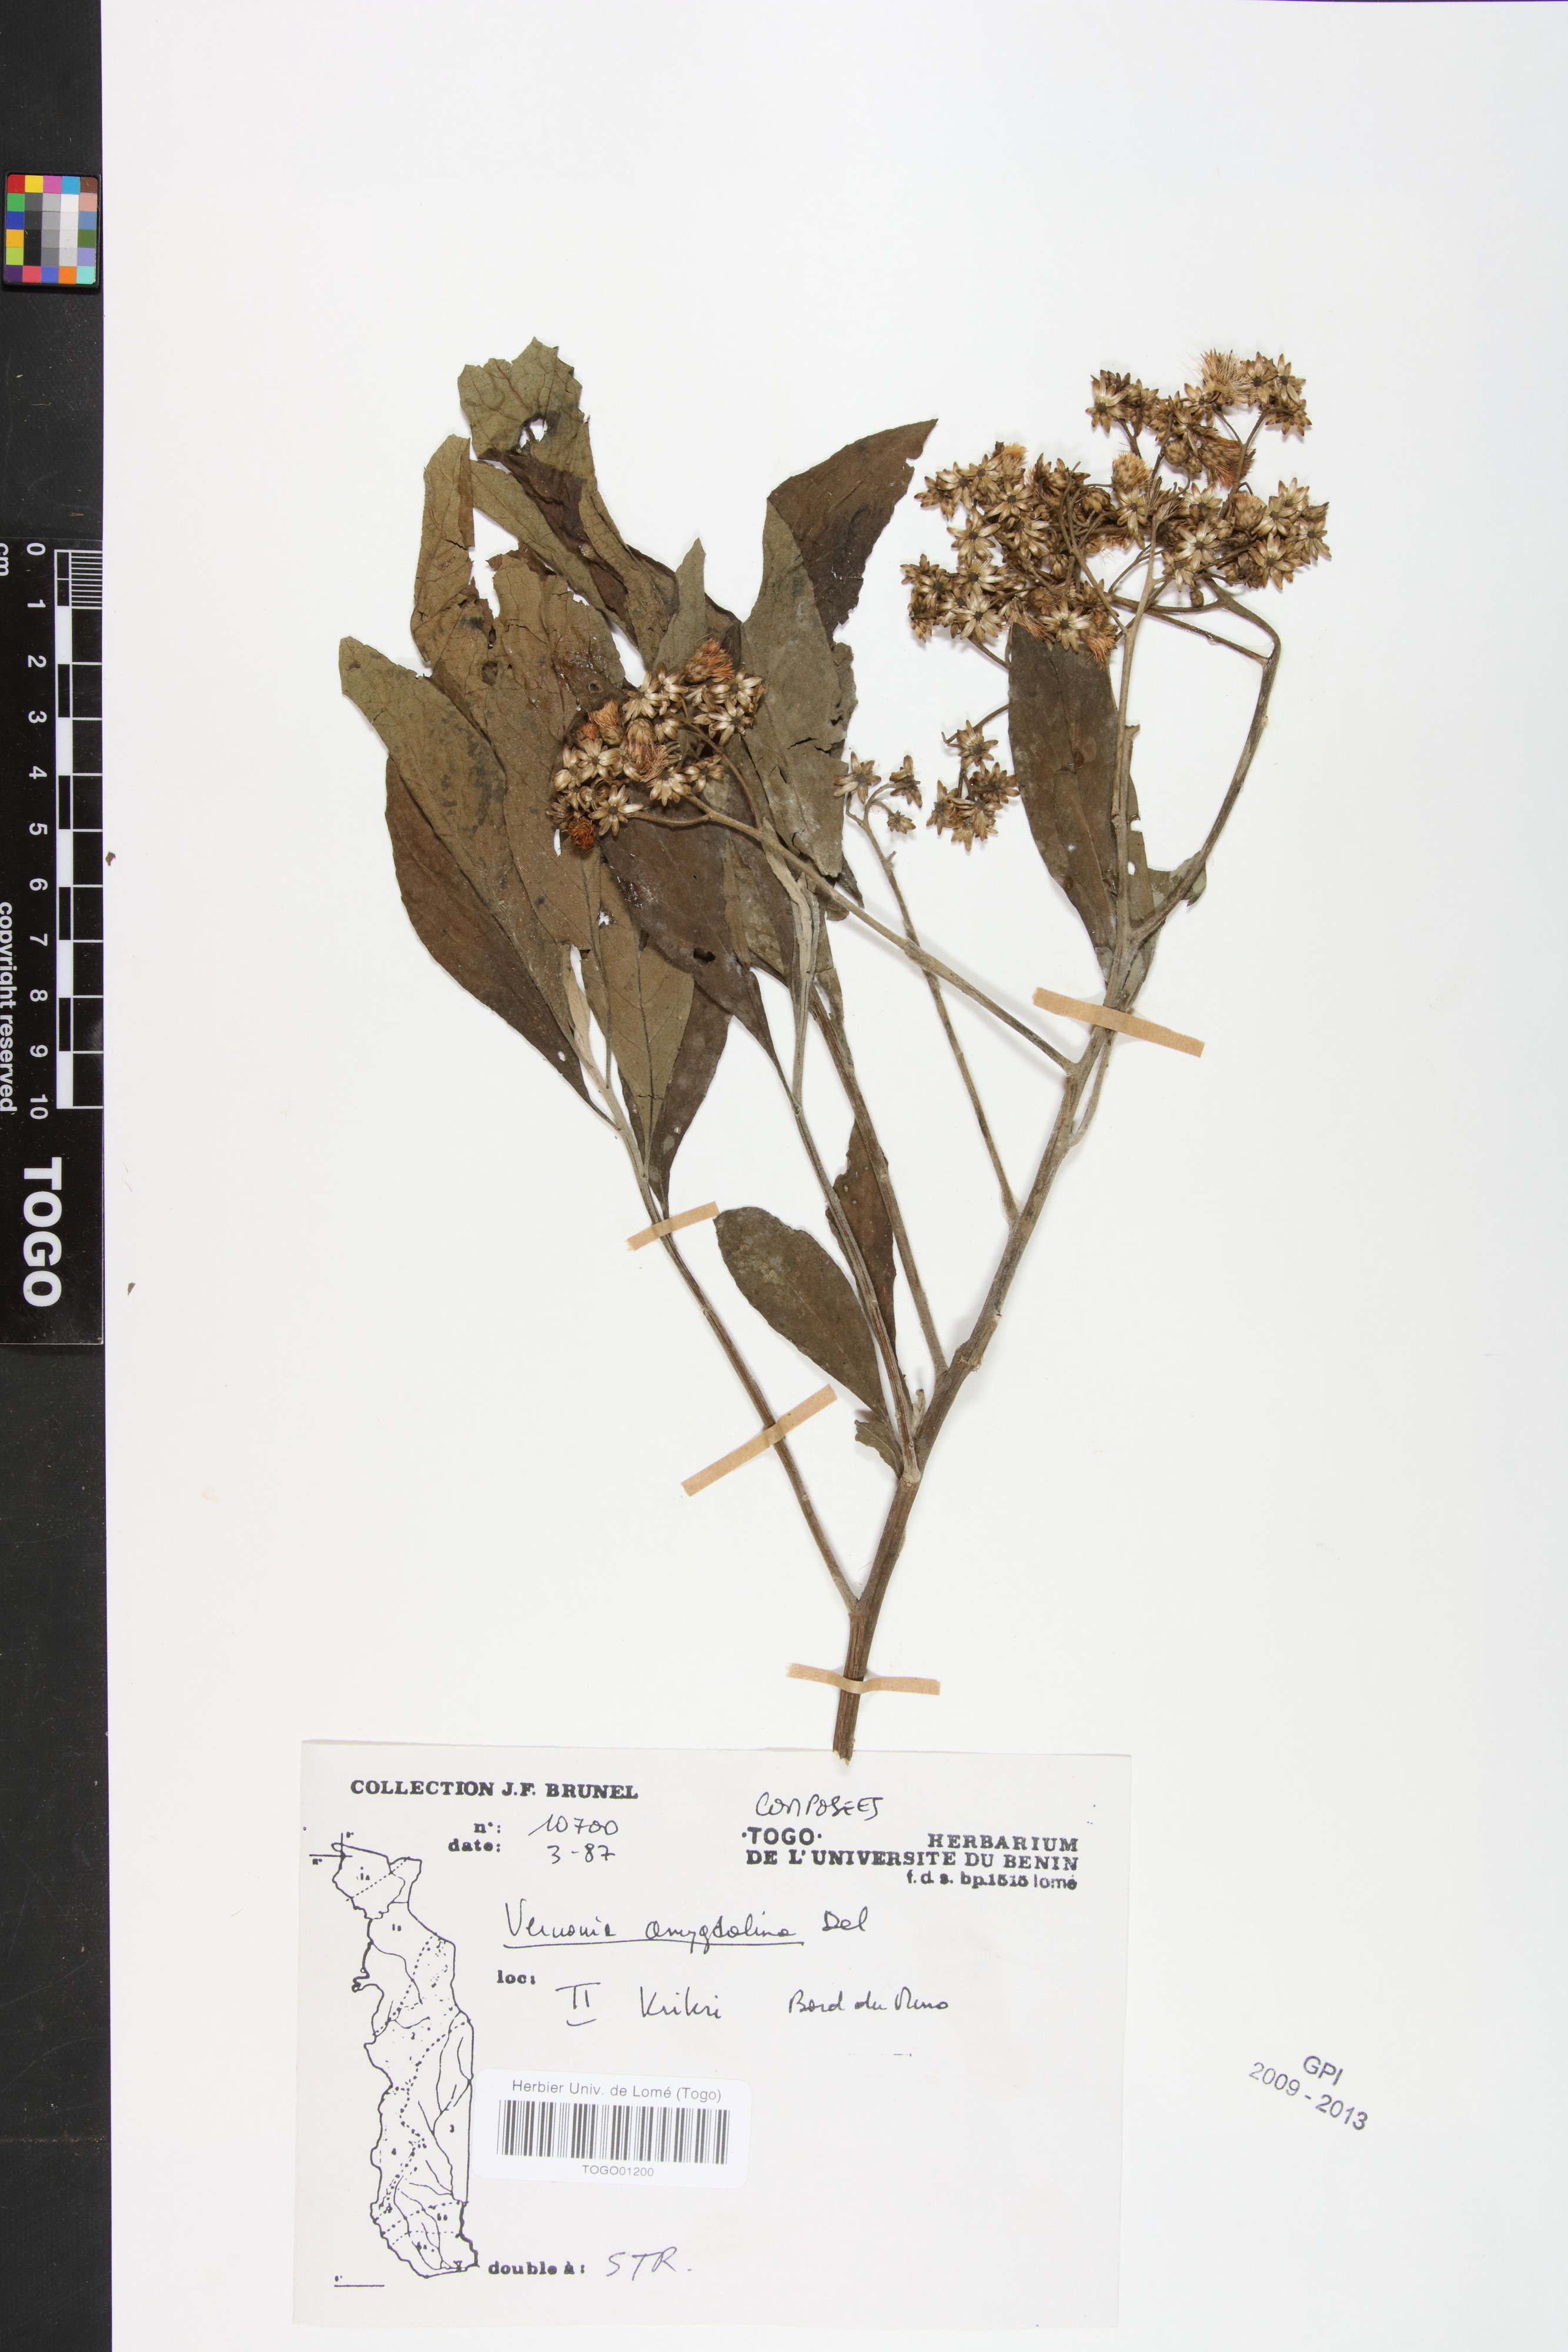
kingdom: Plantae
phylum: Tracheophyta
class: Magnoliopsida
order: Asterales
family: Asteraceae
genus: Gymnanthemum
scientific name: Gymnanthemum amygdalinum
